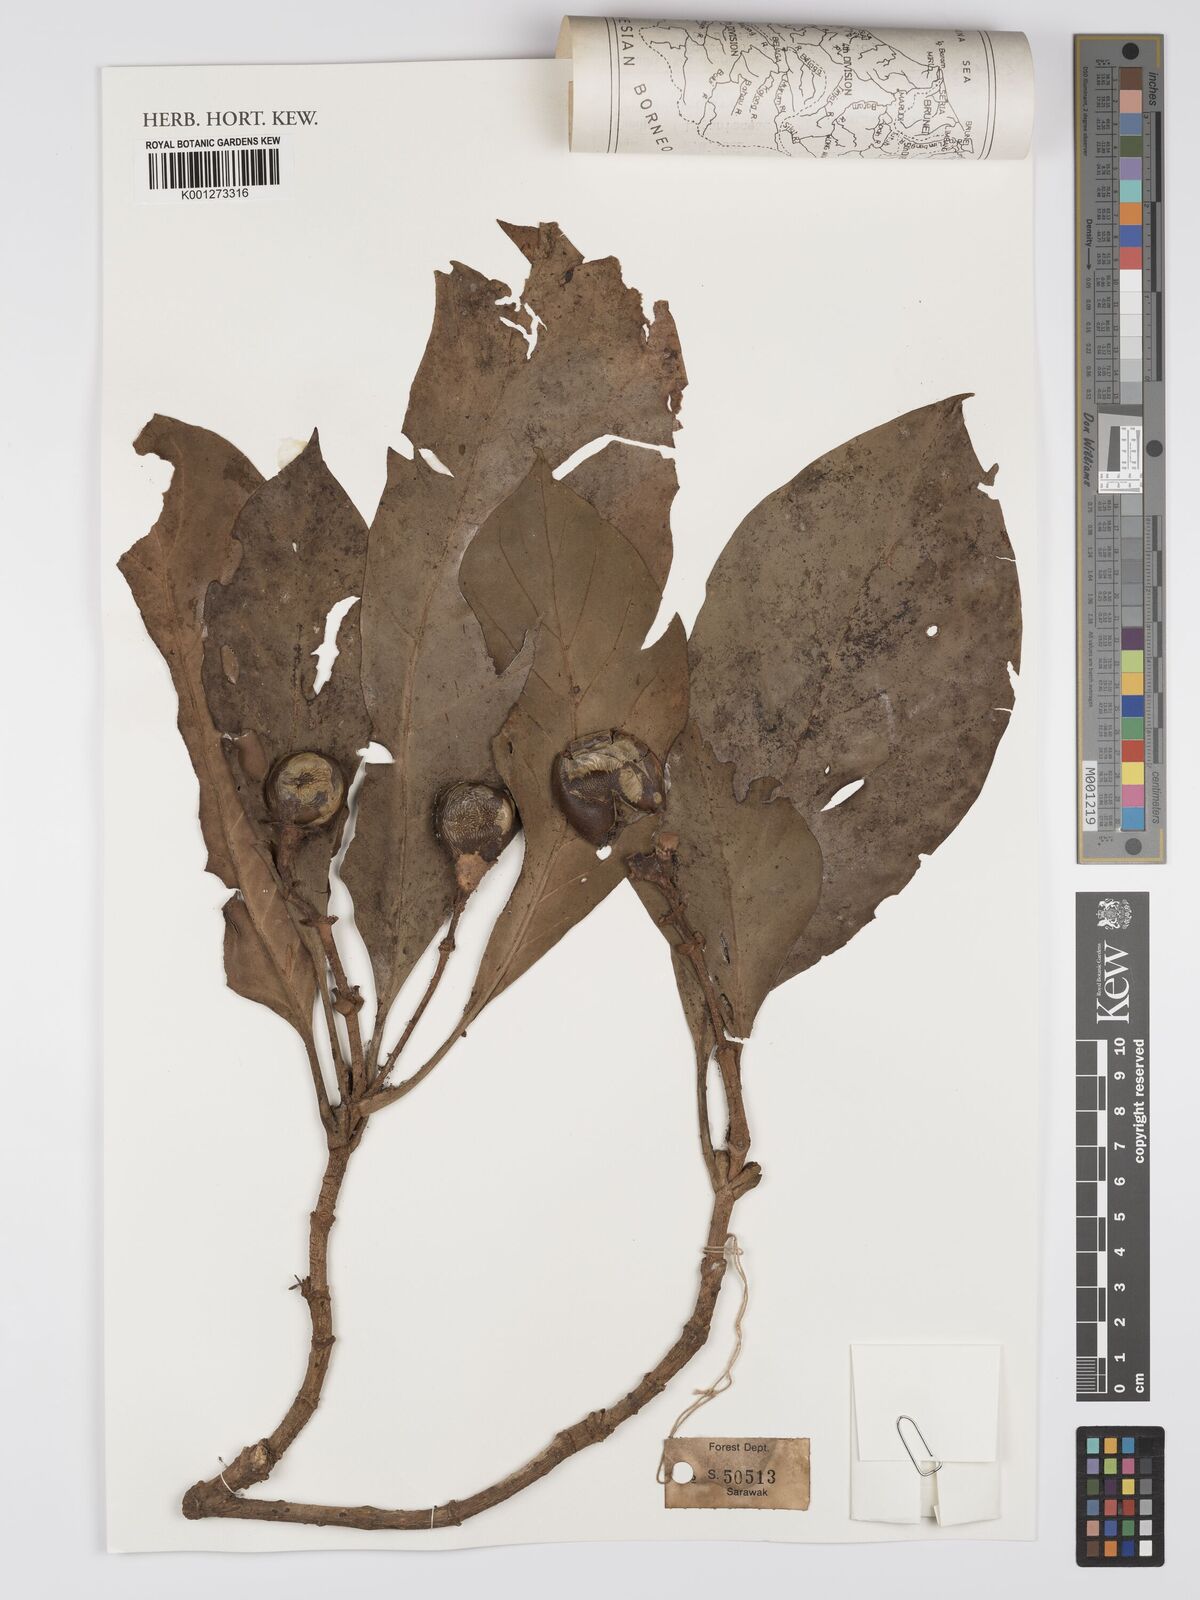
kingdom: Plantae
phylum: Tracheophyta
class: Magnoliopsida
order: Gentianales
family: Gentianaceae
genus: Fagraea
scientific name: Fagraea
